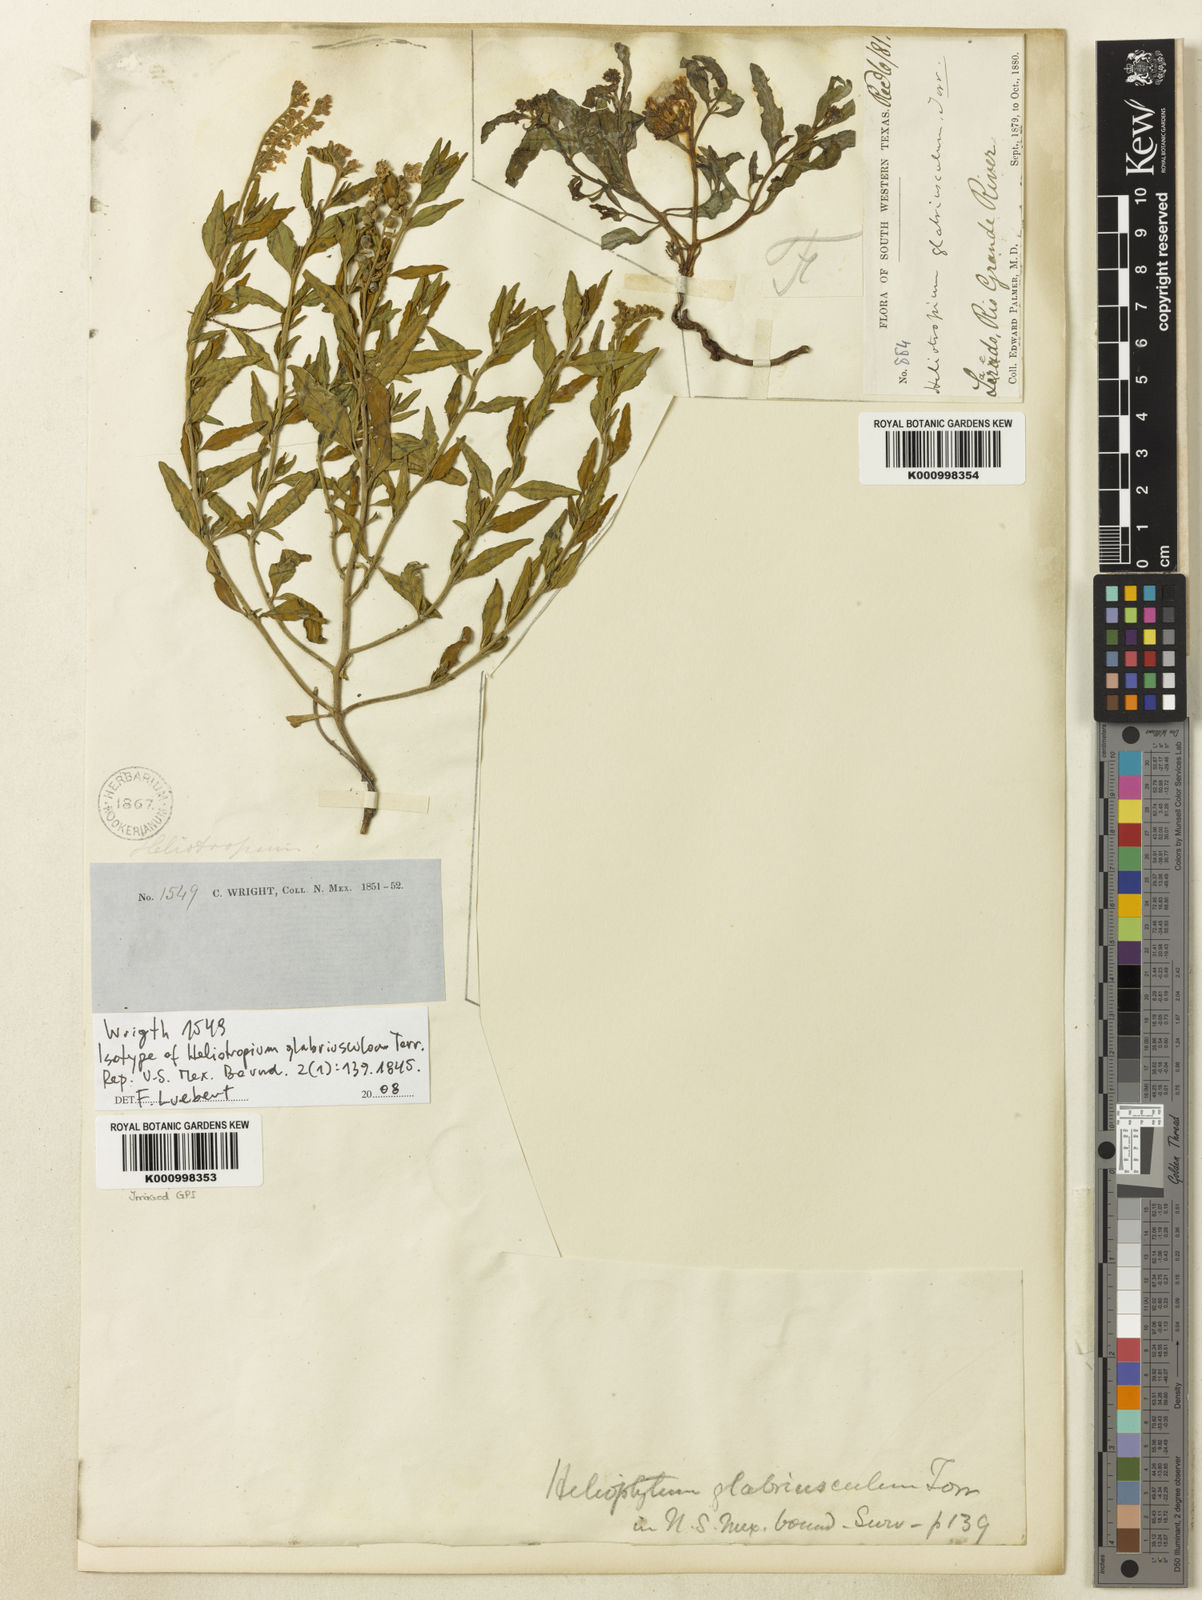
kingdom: Plantae
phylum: Tracheophyta
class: Magnoliopsida
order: Boraginales
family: Heliotropiaceae
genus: Heliotropium
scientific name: Heliotropium glabriusculum
